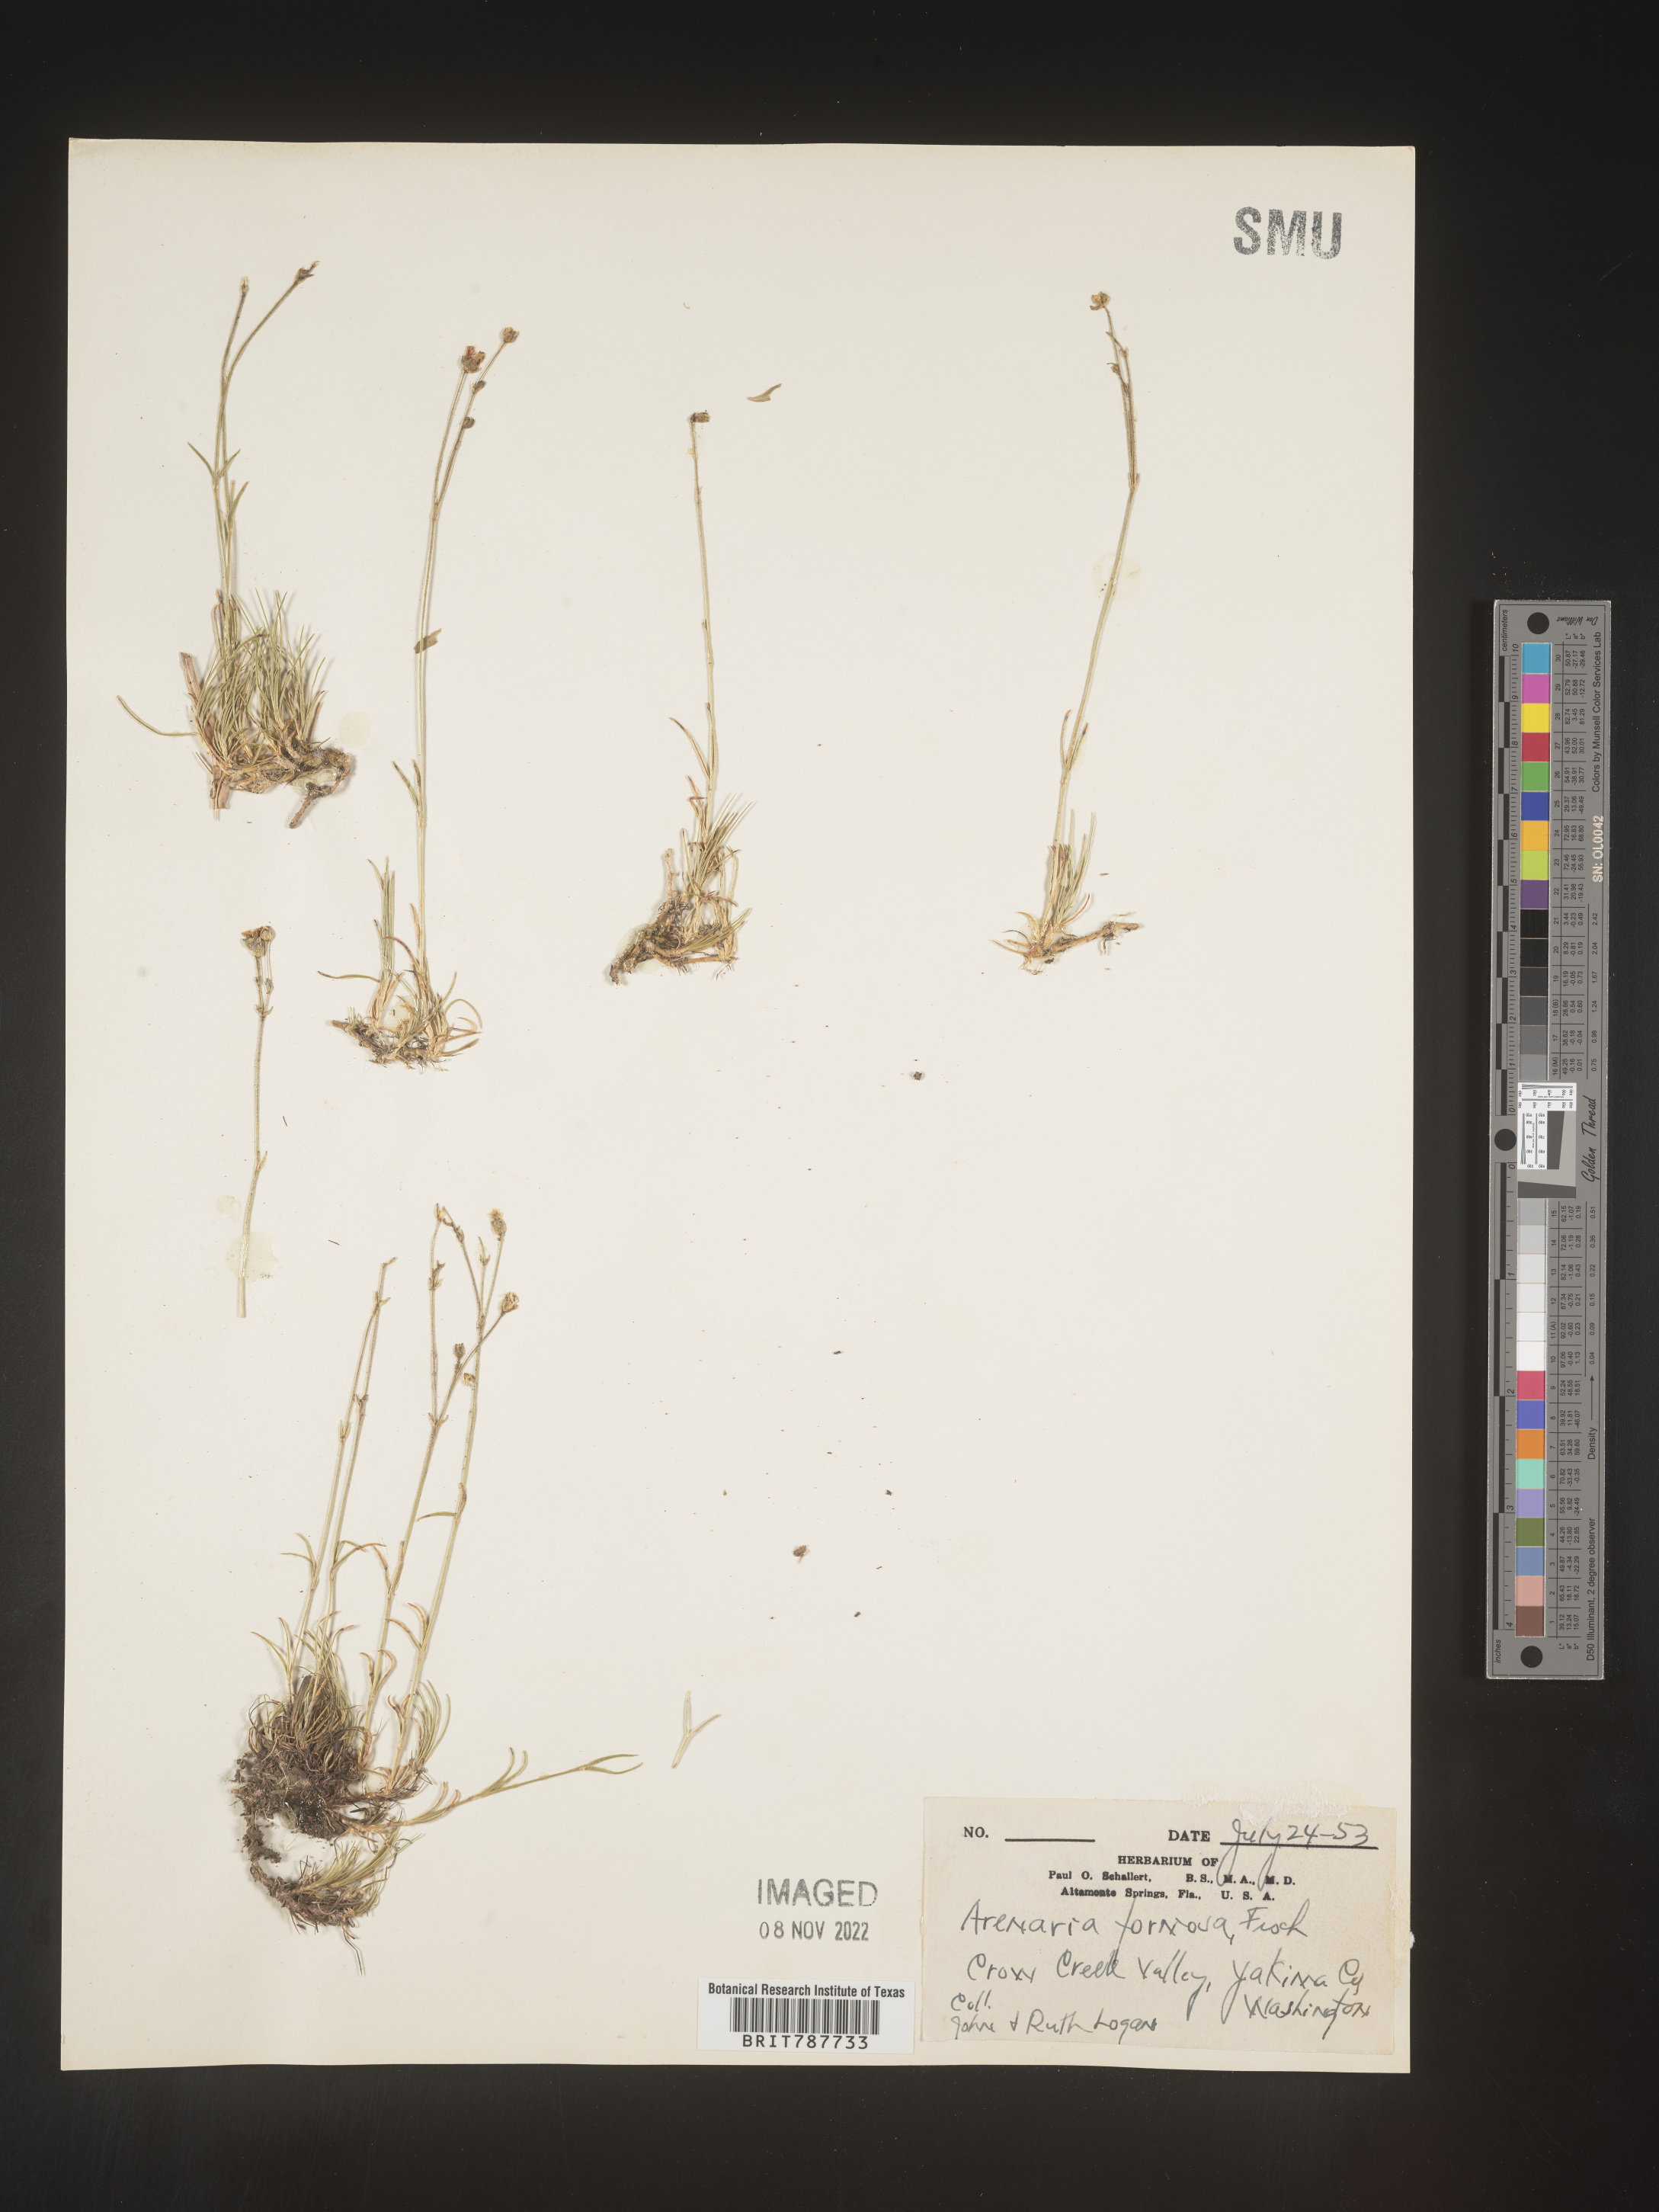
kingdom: Plantae
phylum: Tracheophyta
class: Magnoliopsida
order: Caryophyllales
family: Caryophyllaceae
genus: Arenaria
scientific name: Arenaria
